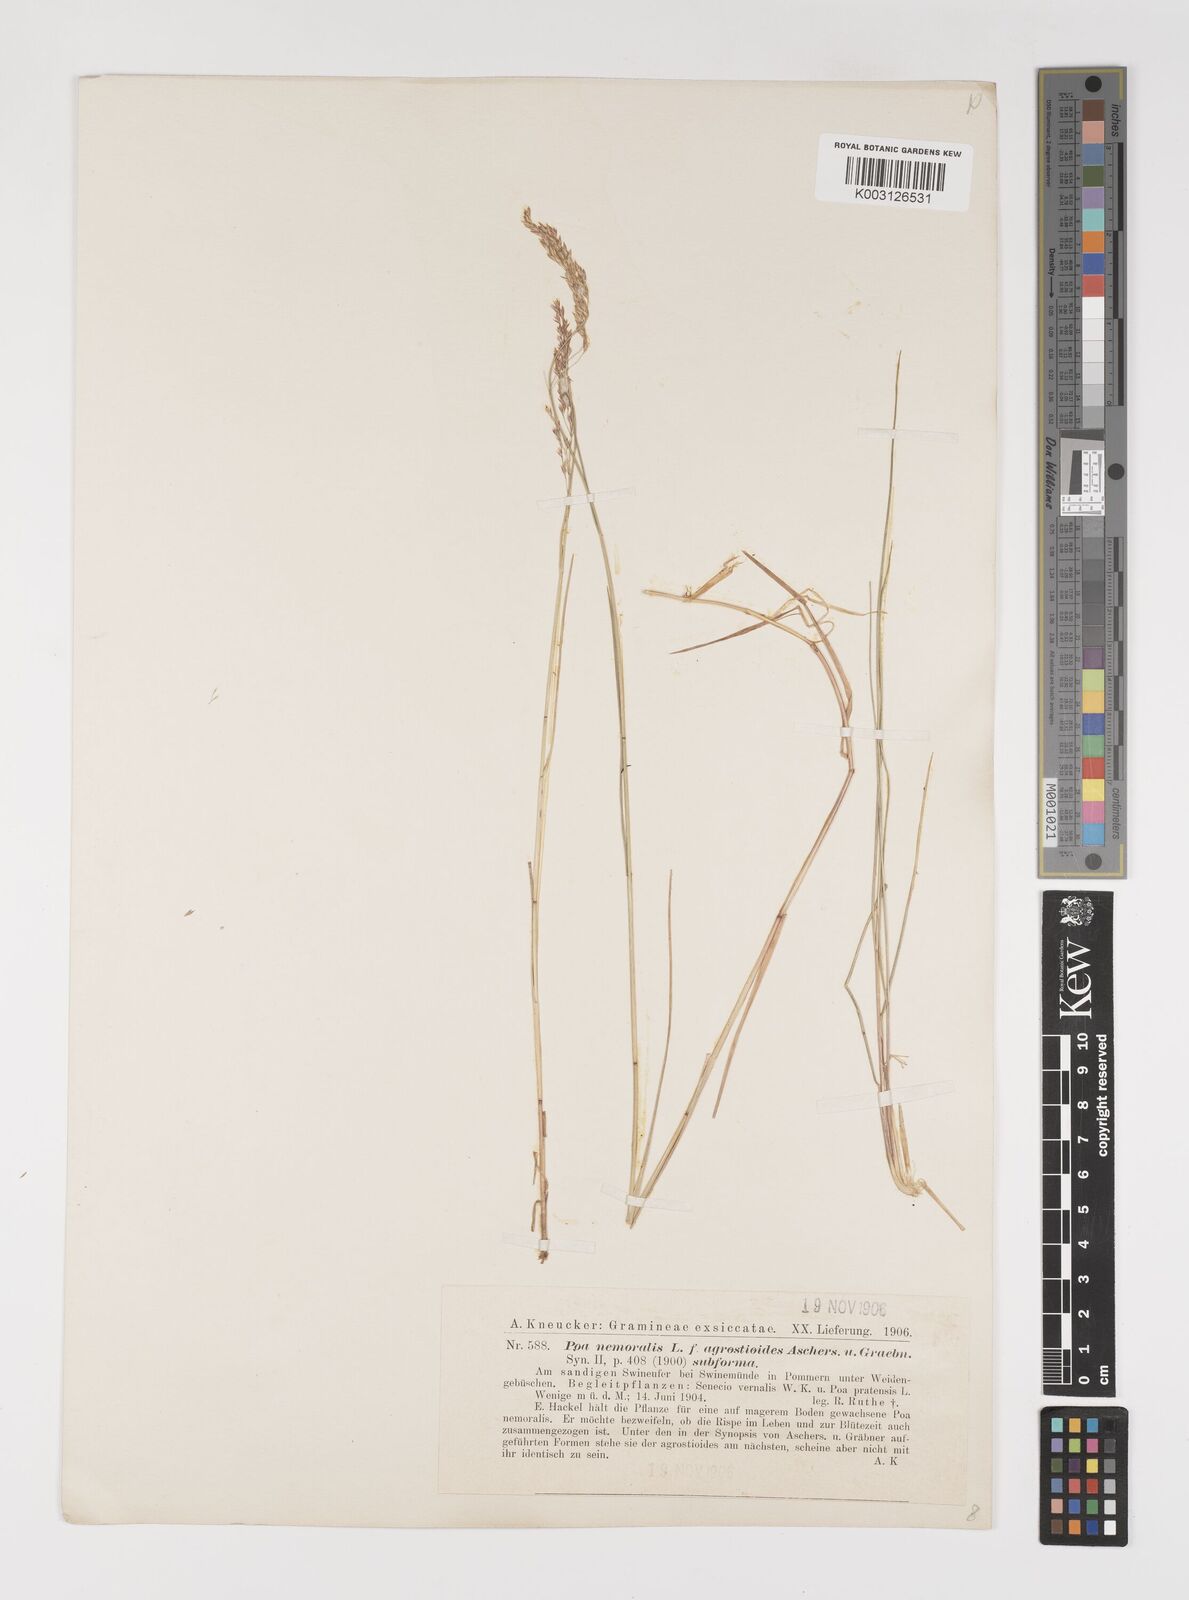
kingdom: Plantae
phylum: Tracheophyta
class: Liliopsida
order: Poales
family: Poaceae
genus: Poa
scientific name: Poa nemoralis
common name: Wood bluegrass
